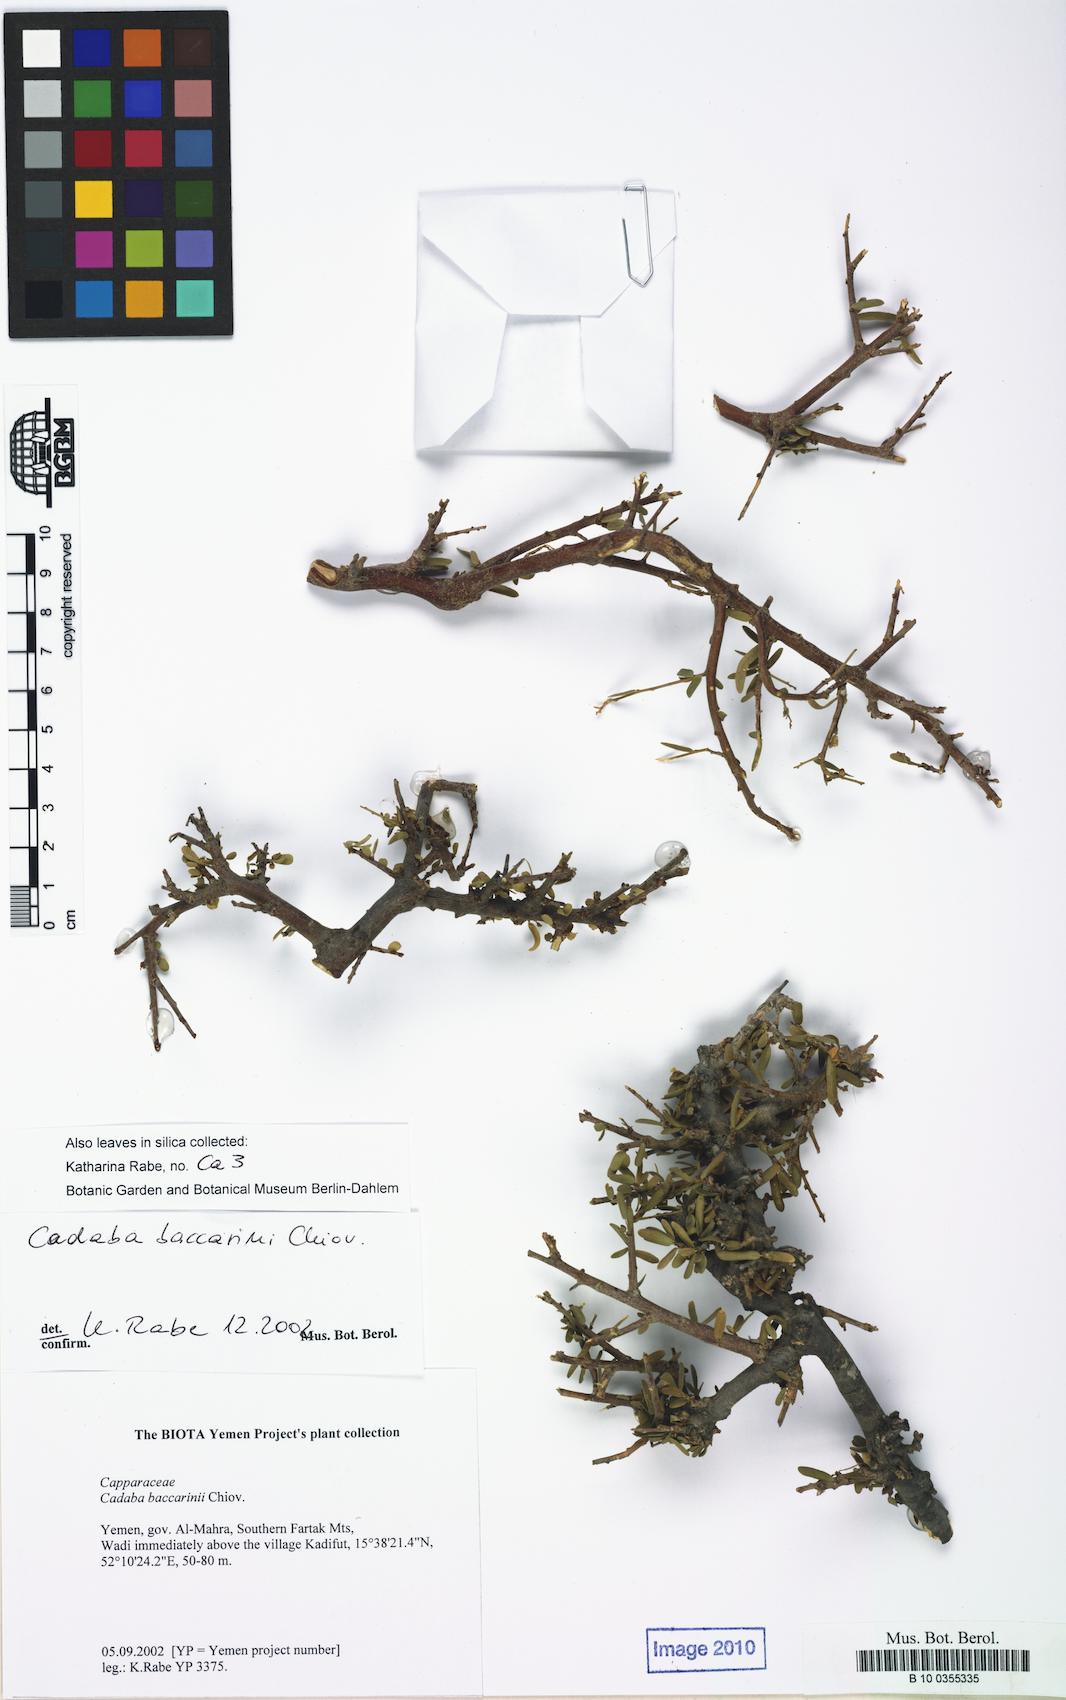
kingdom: Plantae
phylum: Tracheophyta
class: Magnoliopsida
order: Brassicales
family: Capparaceae
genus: Cadaba
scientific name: Cadaba baccarinii
